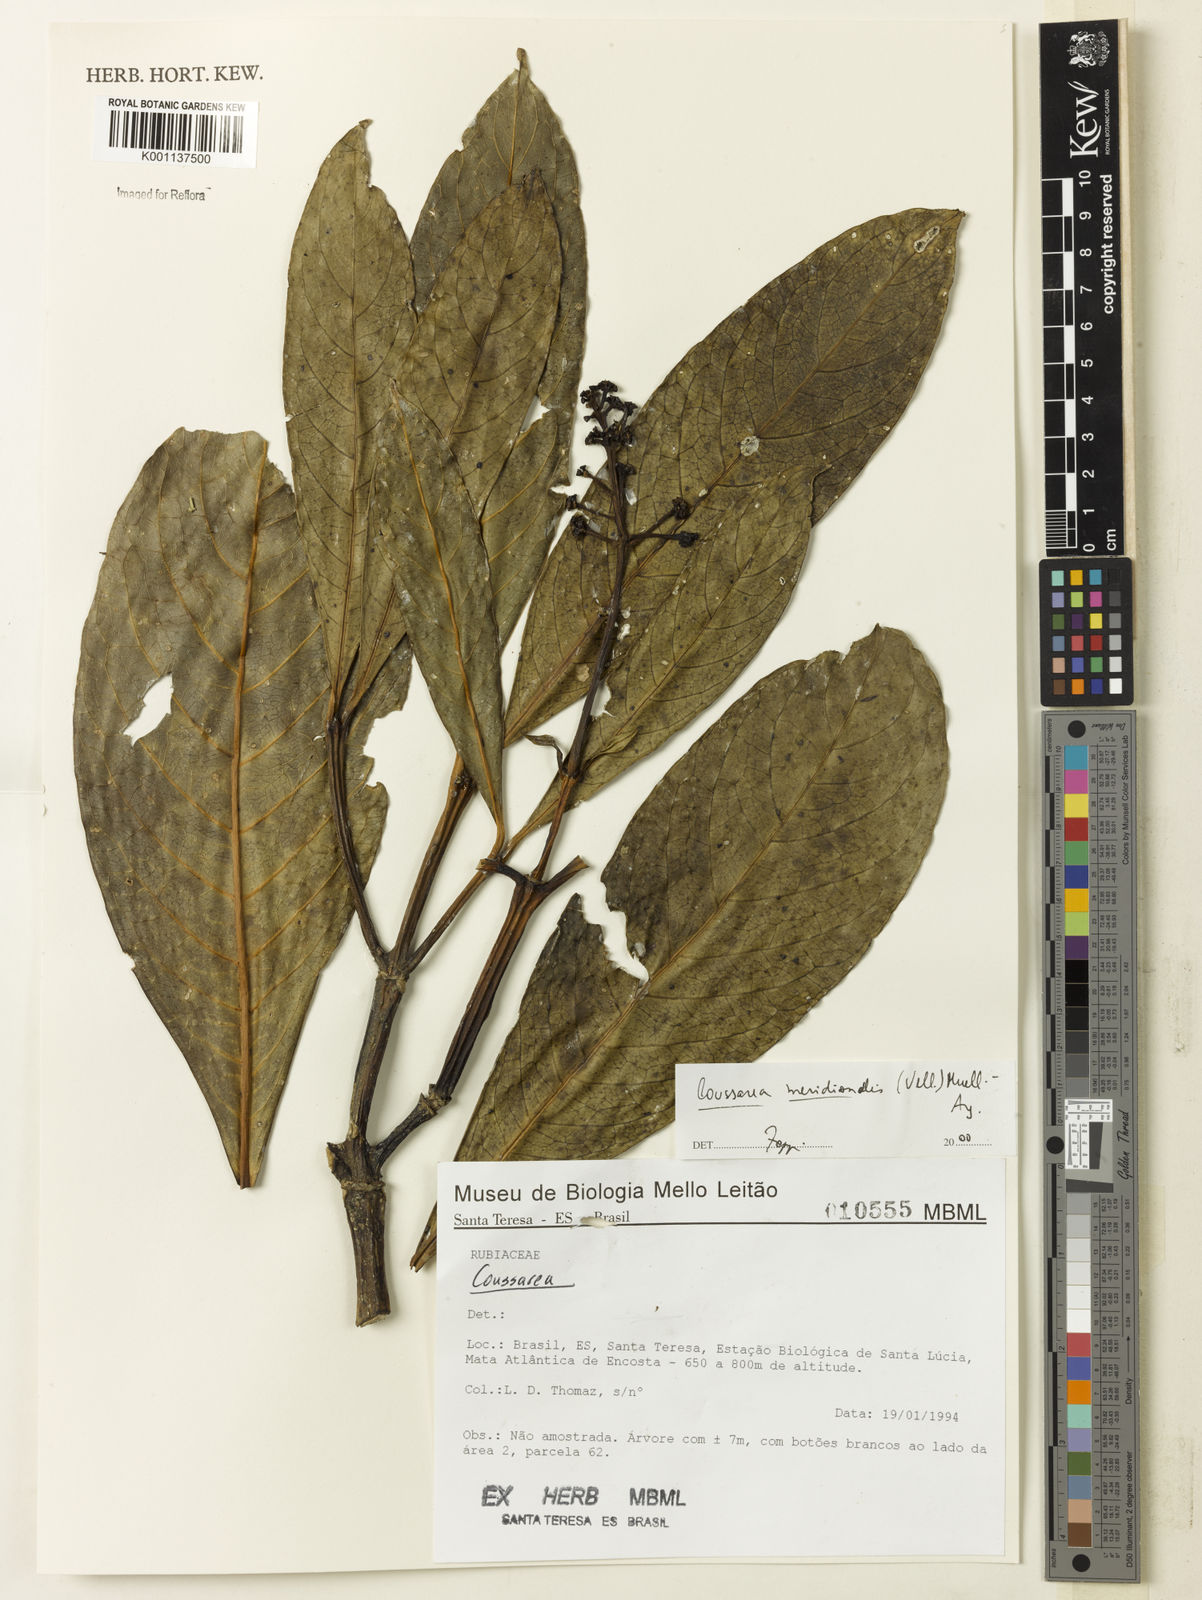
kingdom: Plantae
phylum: Tracheophyta
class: Magnoliopsida
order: Gentianales
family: Rubiaceae
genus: Coussarea
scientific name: Coussarea
